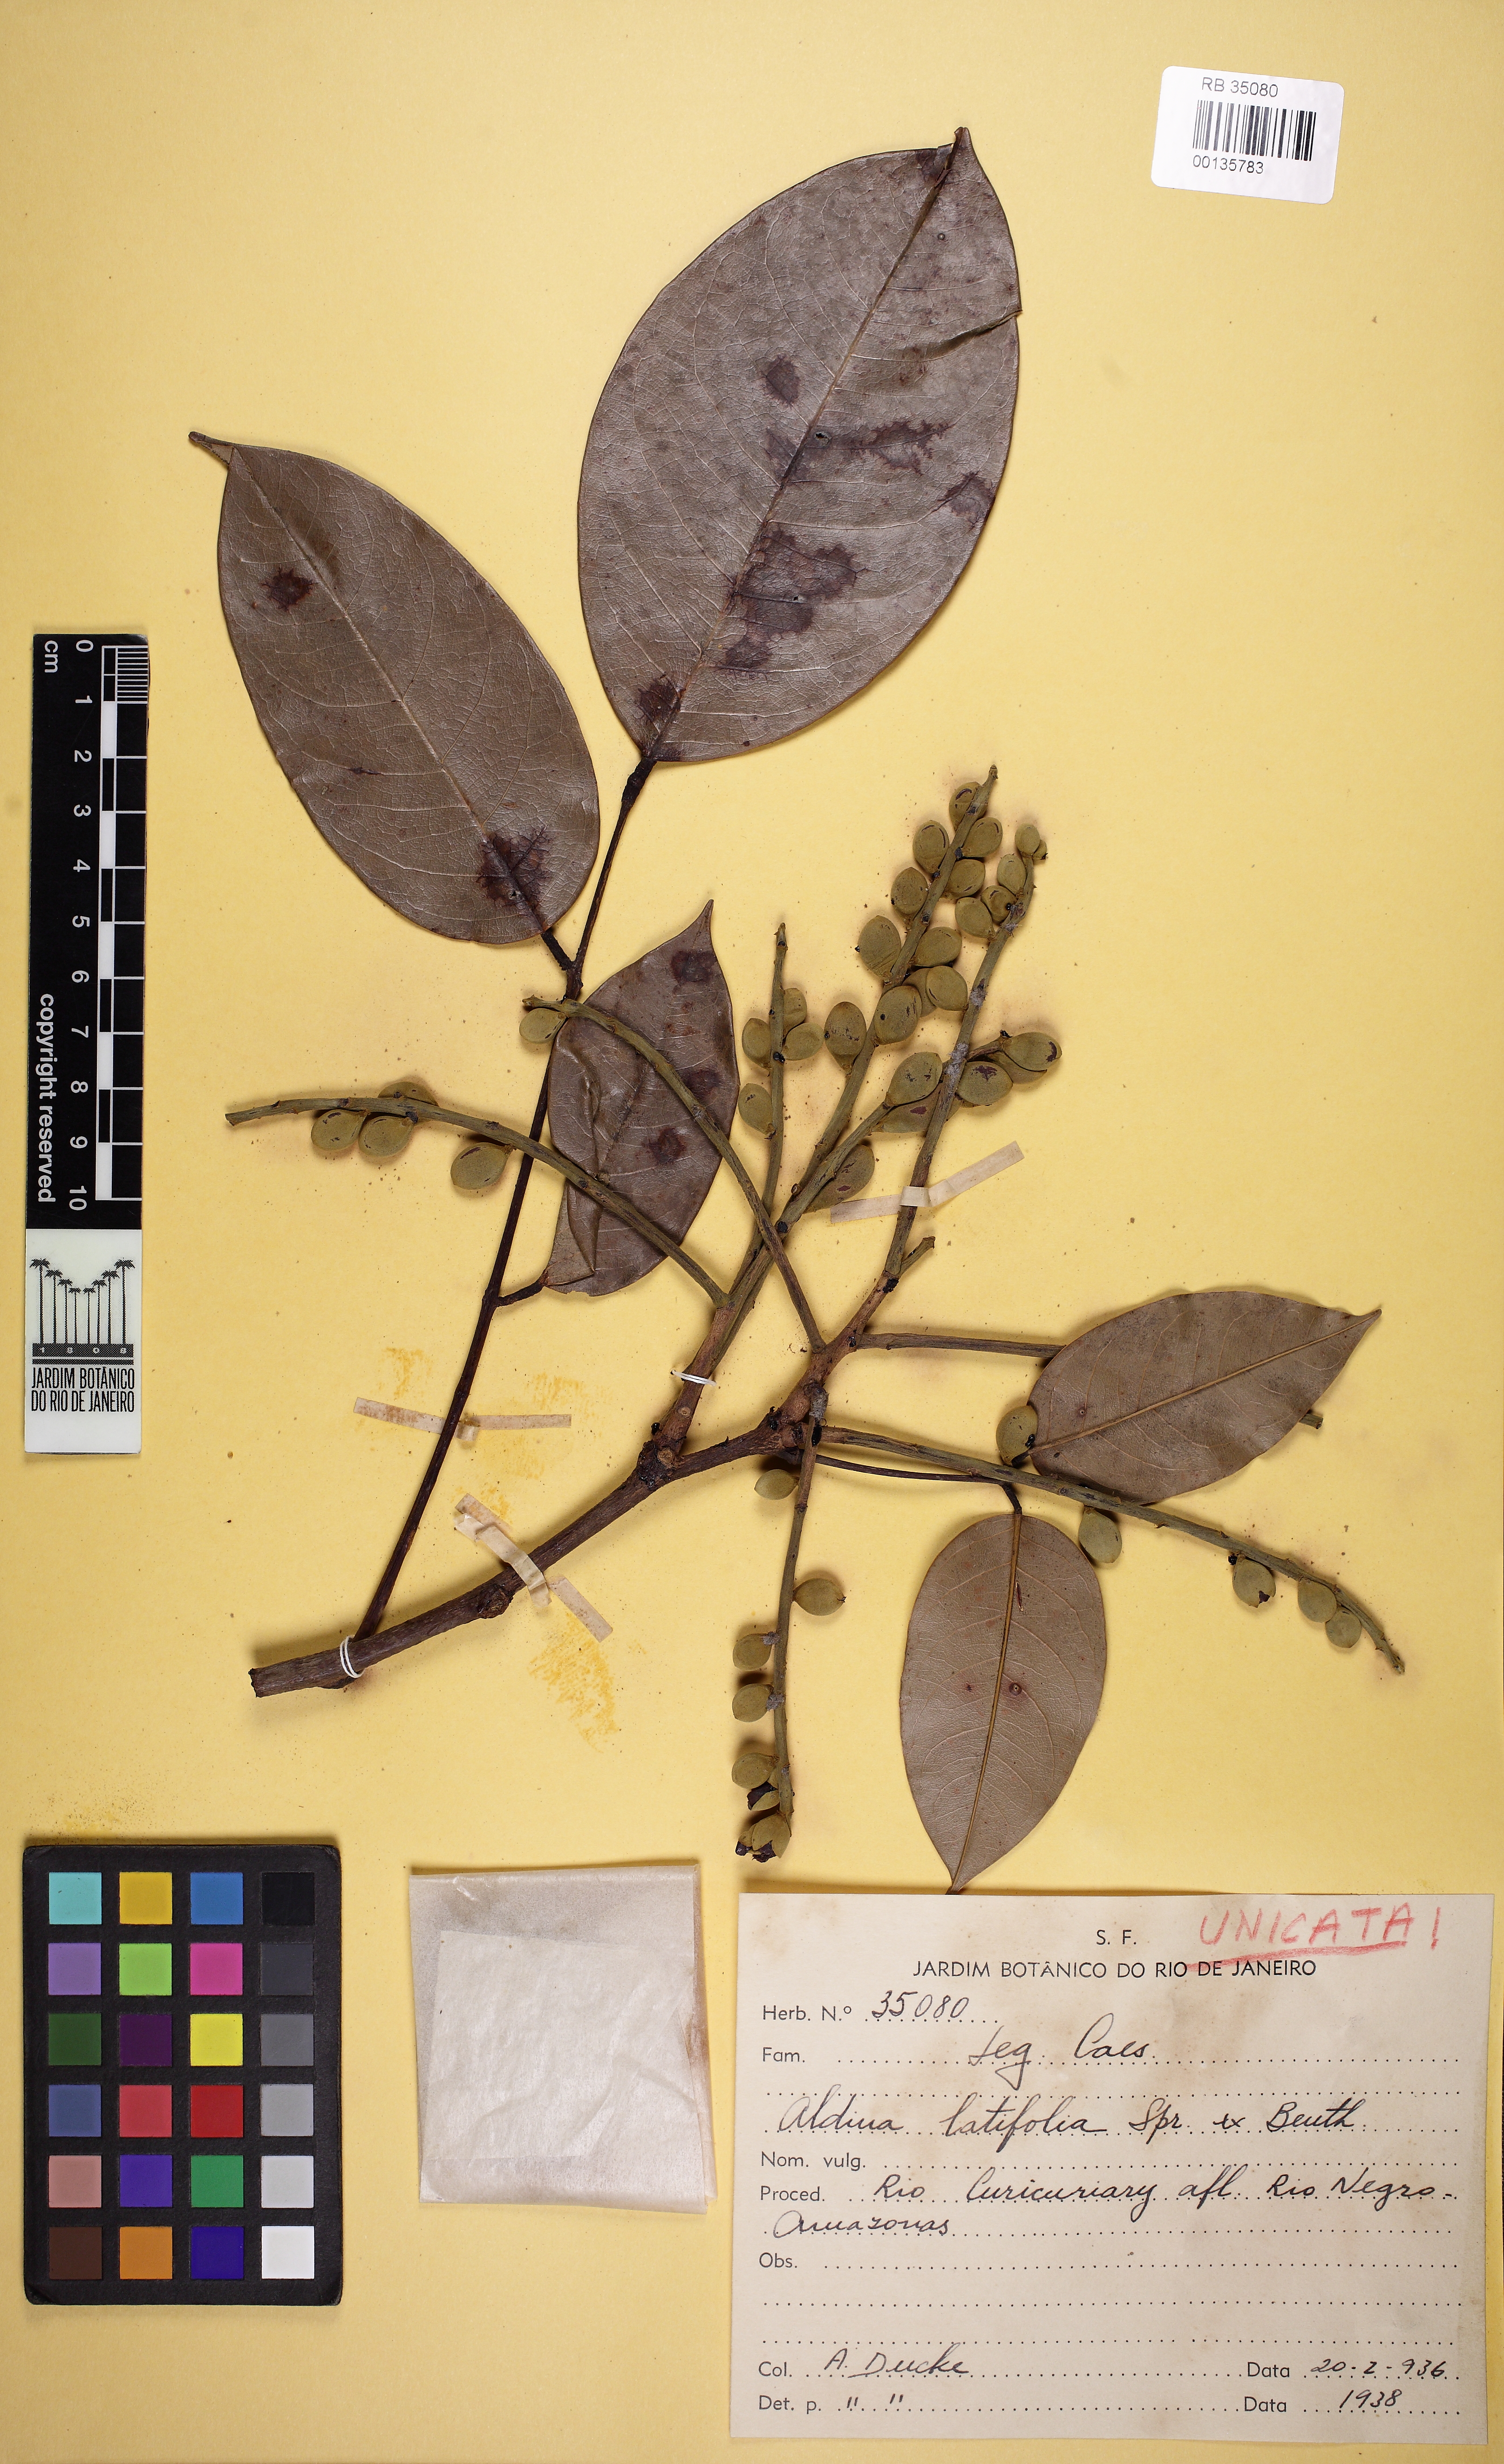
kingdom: Plantae
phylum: Tracheophyta
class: Magnoliopsida
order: Fabales
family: Fabaceae
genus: Aldina
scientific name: Aldina latifolia
